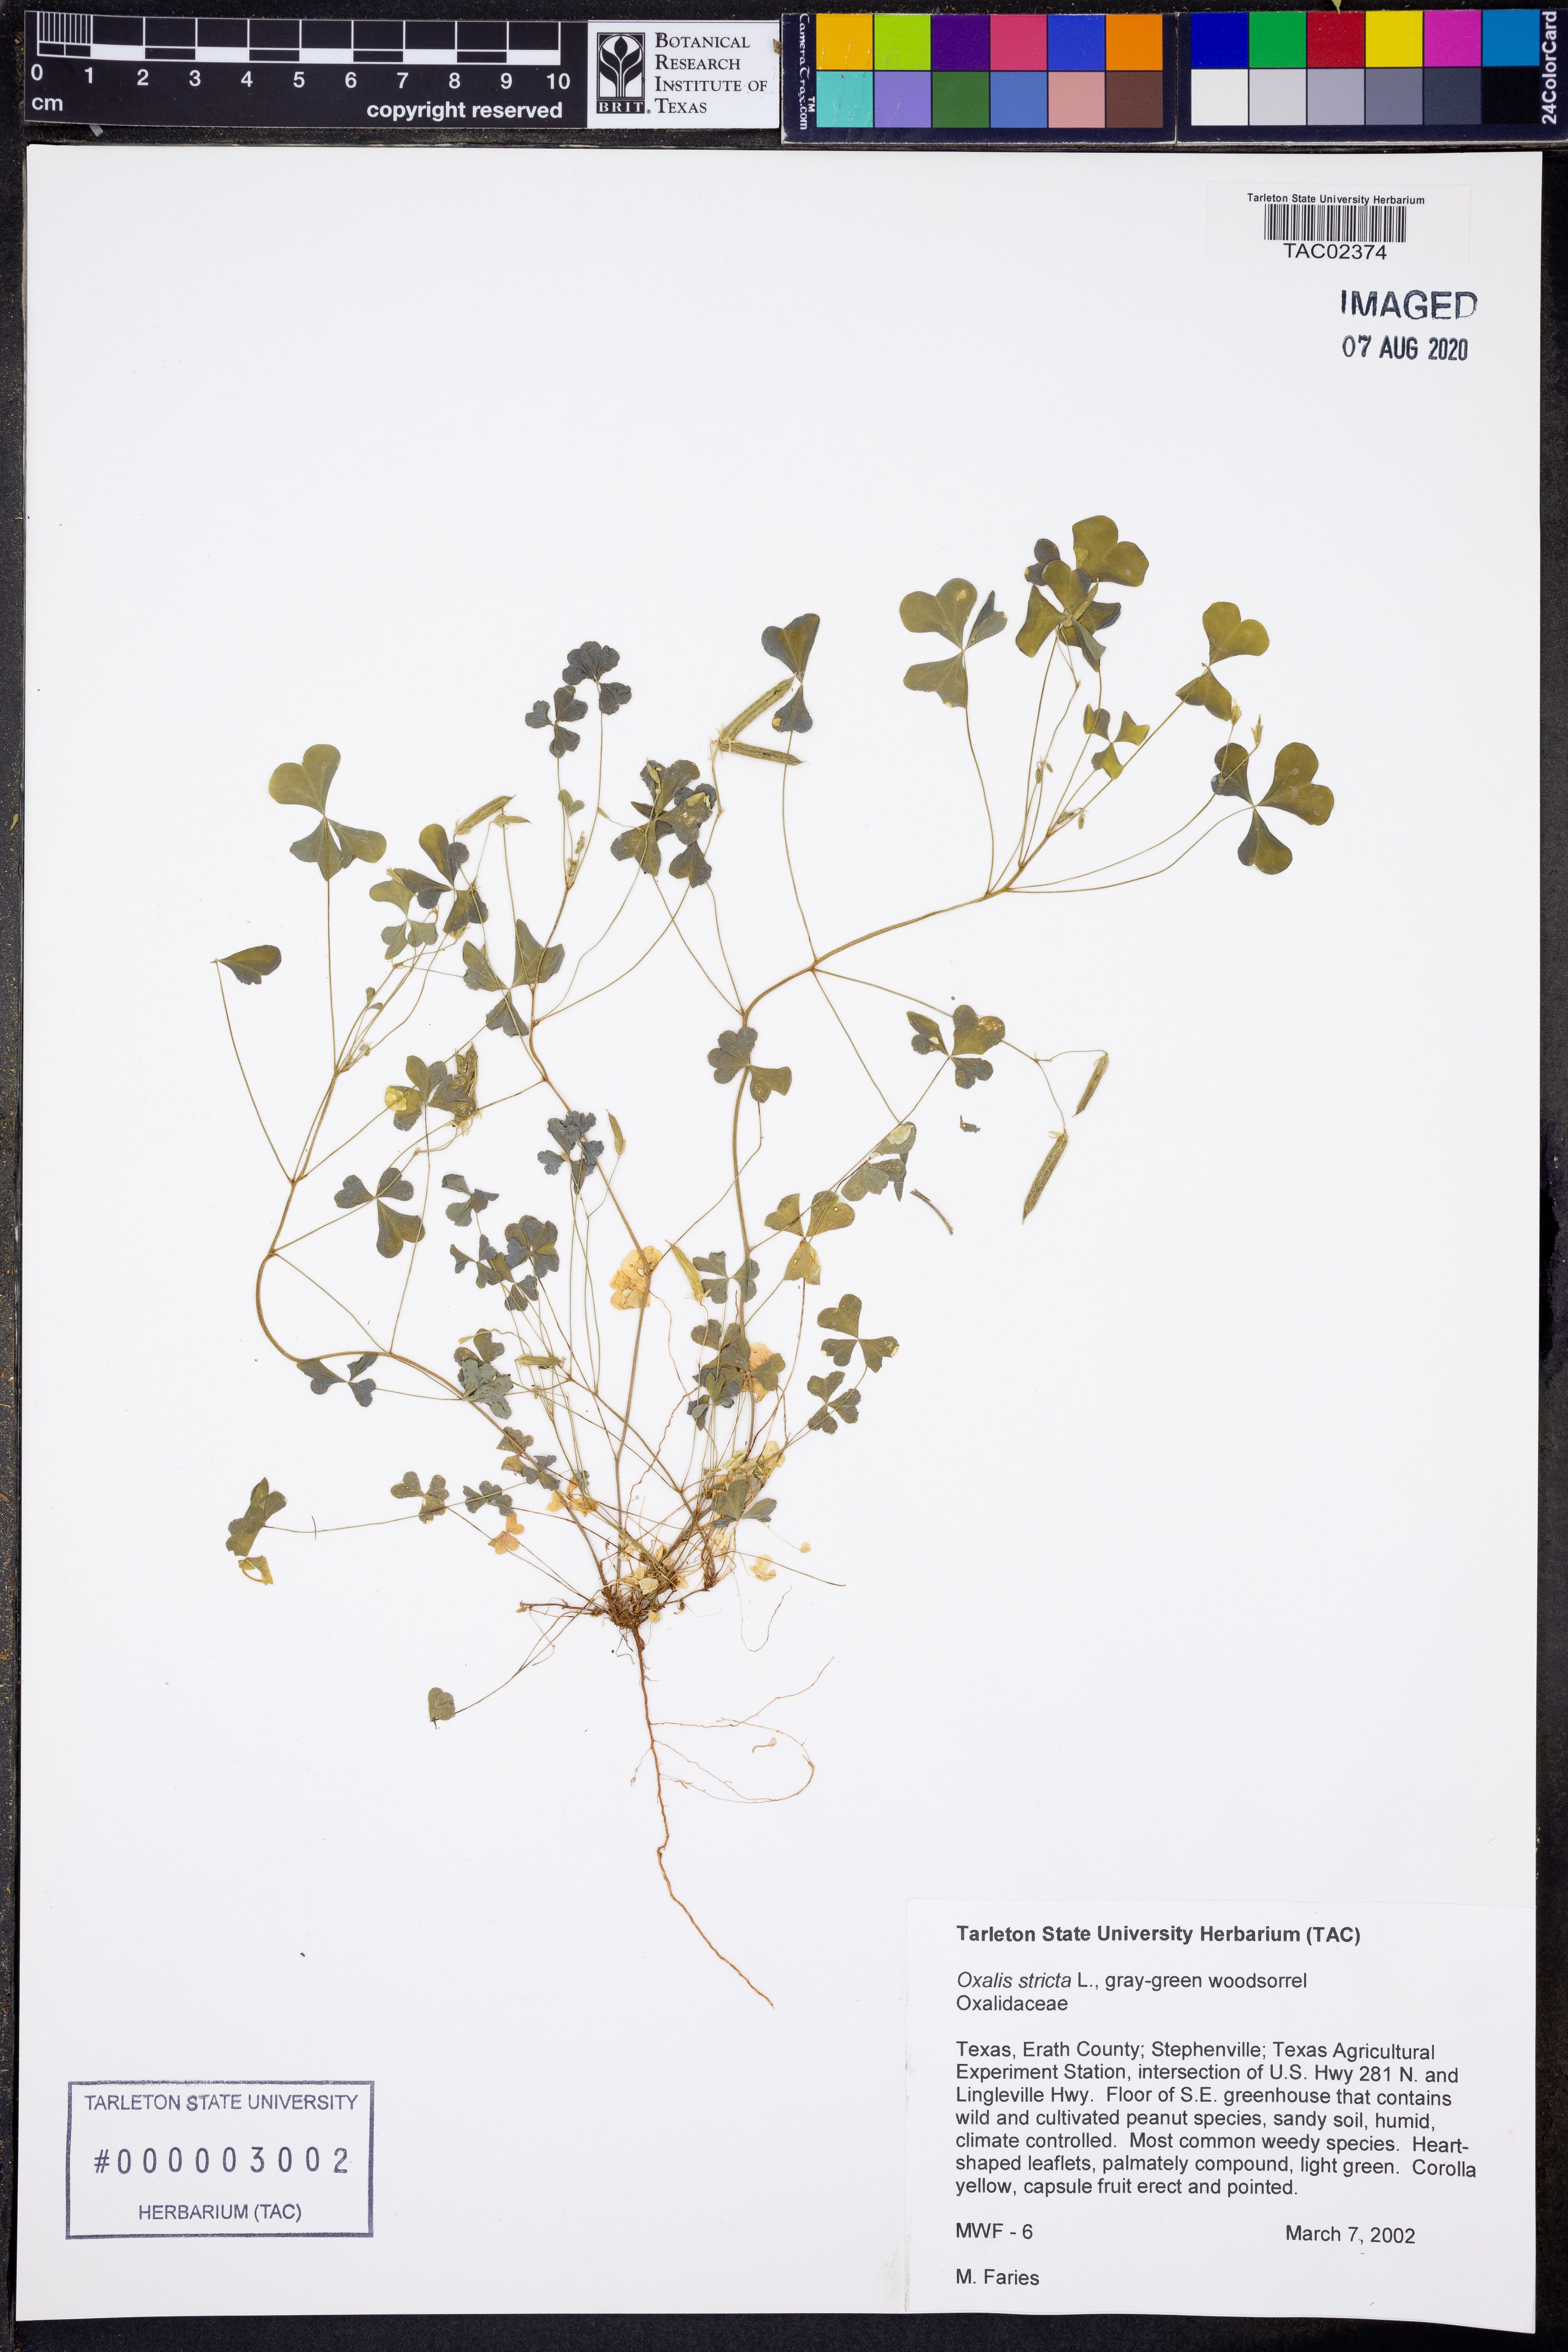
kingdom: Plantae
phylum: Tracheophyta
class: Magnoliopsida
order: Oxalidales
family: Oxalidaceae
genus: Oxalis
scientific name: Oxalis stricta
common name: Upright yellow-sorrel
